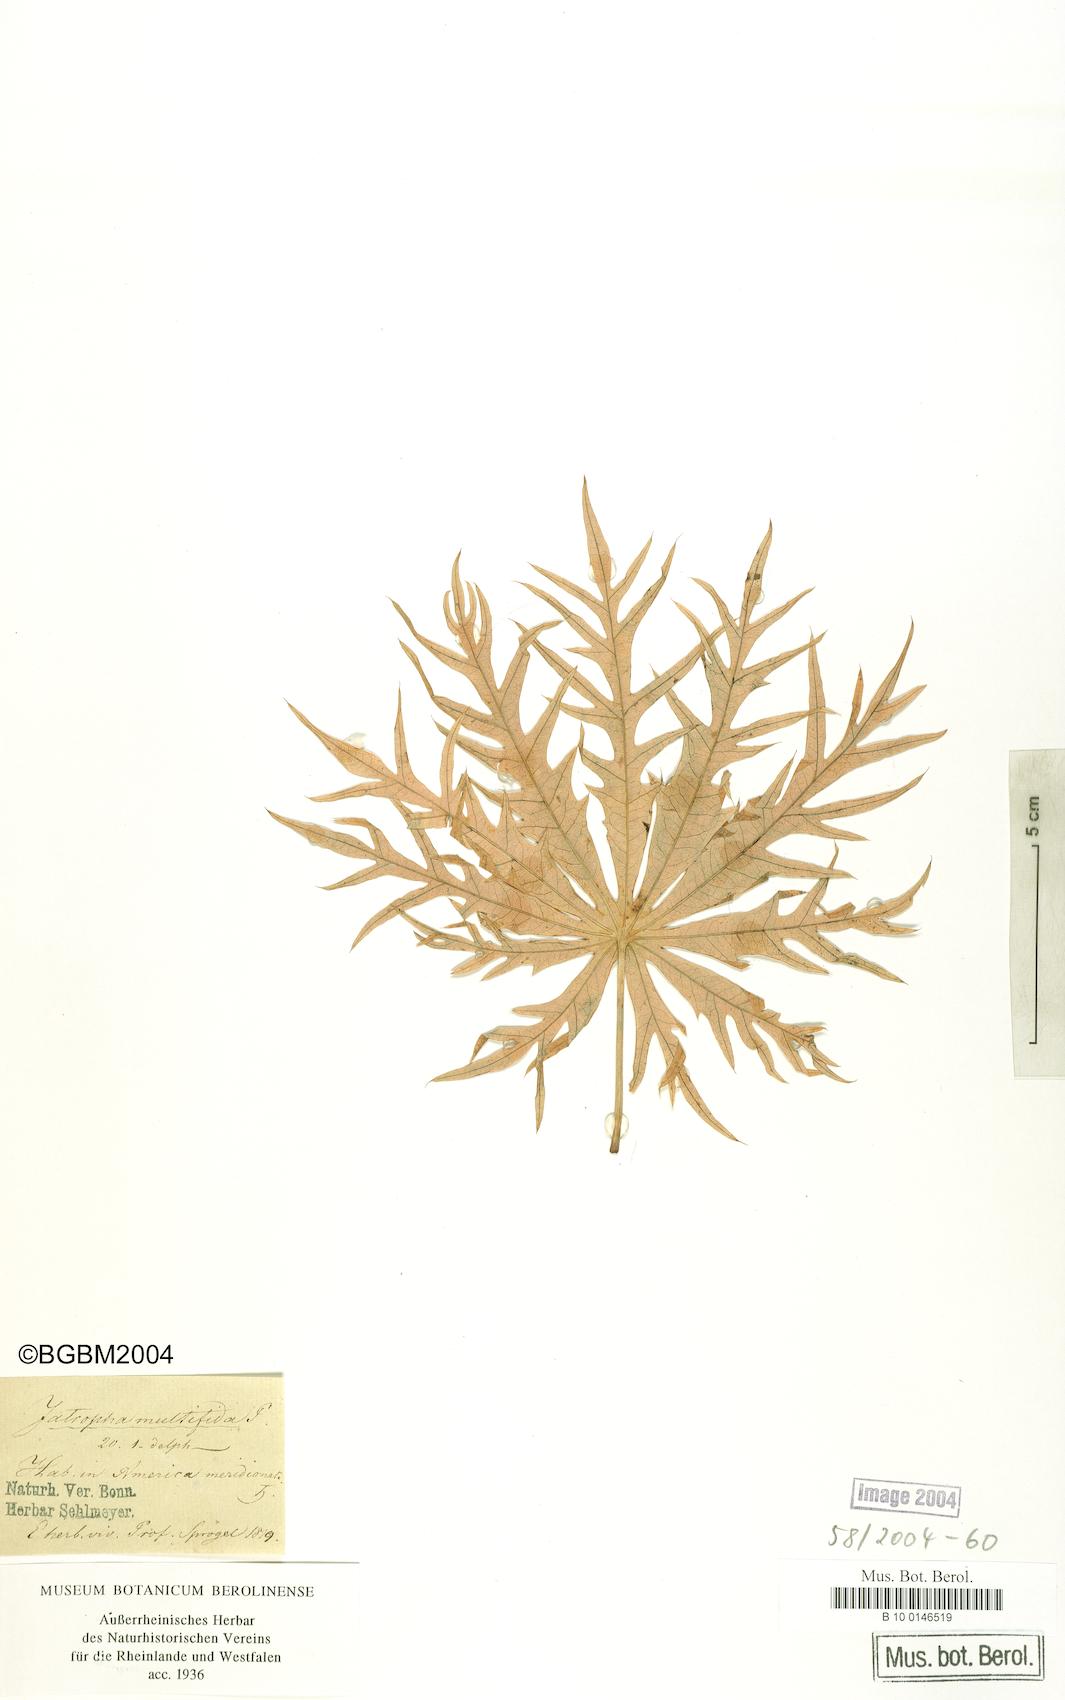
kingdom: Plantae
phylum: Tracheophyta
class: Magnoliopsida
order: Malpighiales
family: Euphorbiaceae
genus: Jatropha
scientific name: Jatropha multifida
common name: Coralbush
